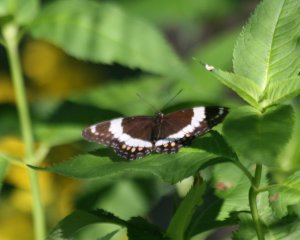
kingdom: Animalia
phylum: Arthropoda
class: Insecta
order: Lepidoptera
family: Nymphalidae
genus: Limenitis
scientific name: Limenitis arthemis
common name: Red-spotted Admiral
